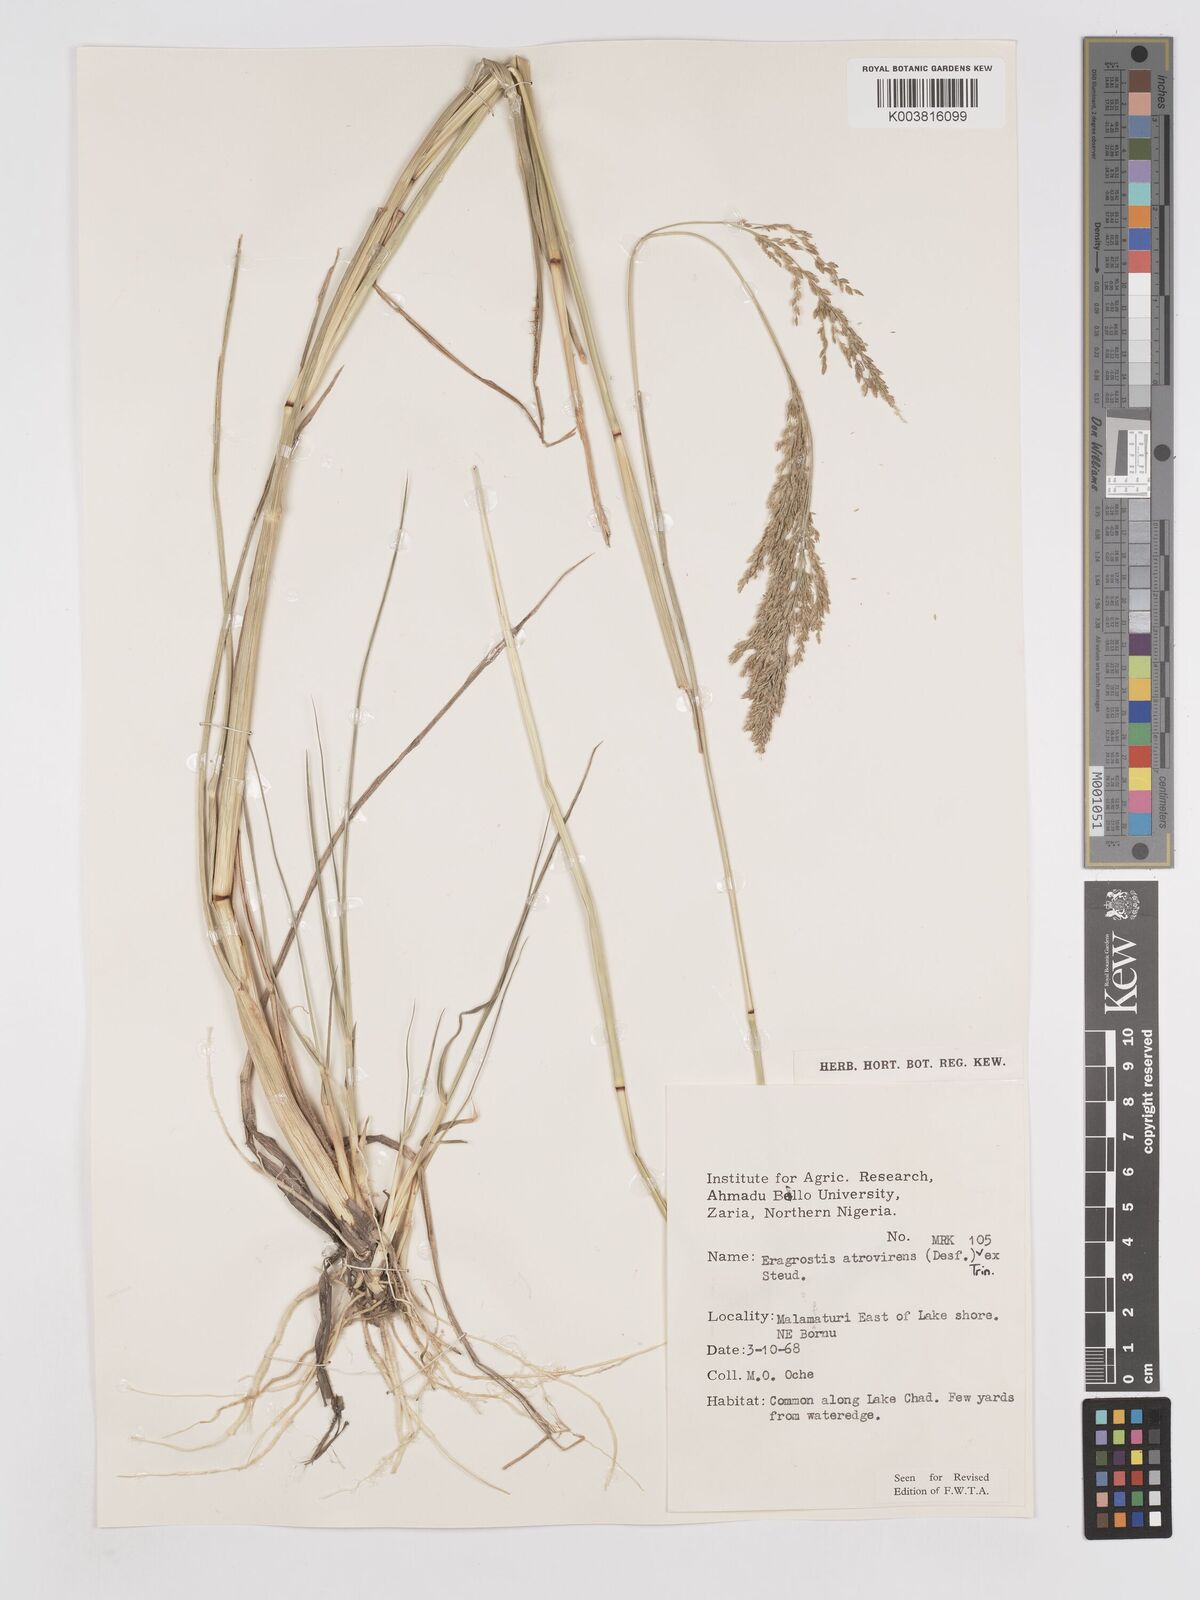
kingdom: Plantae
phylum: Tracheophyta
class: Liliopsida
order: Poales
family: Poaceae
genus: Eragrostis
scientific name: Eragrostis atrovirens
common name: Thalia lovegrass
